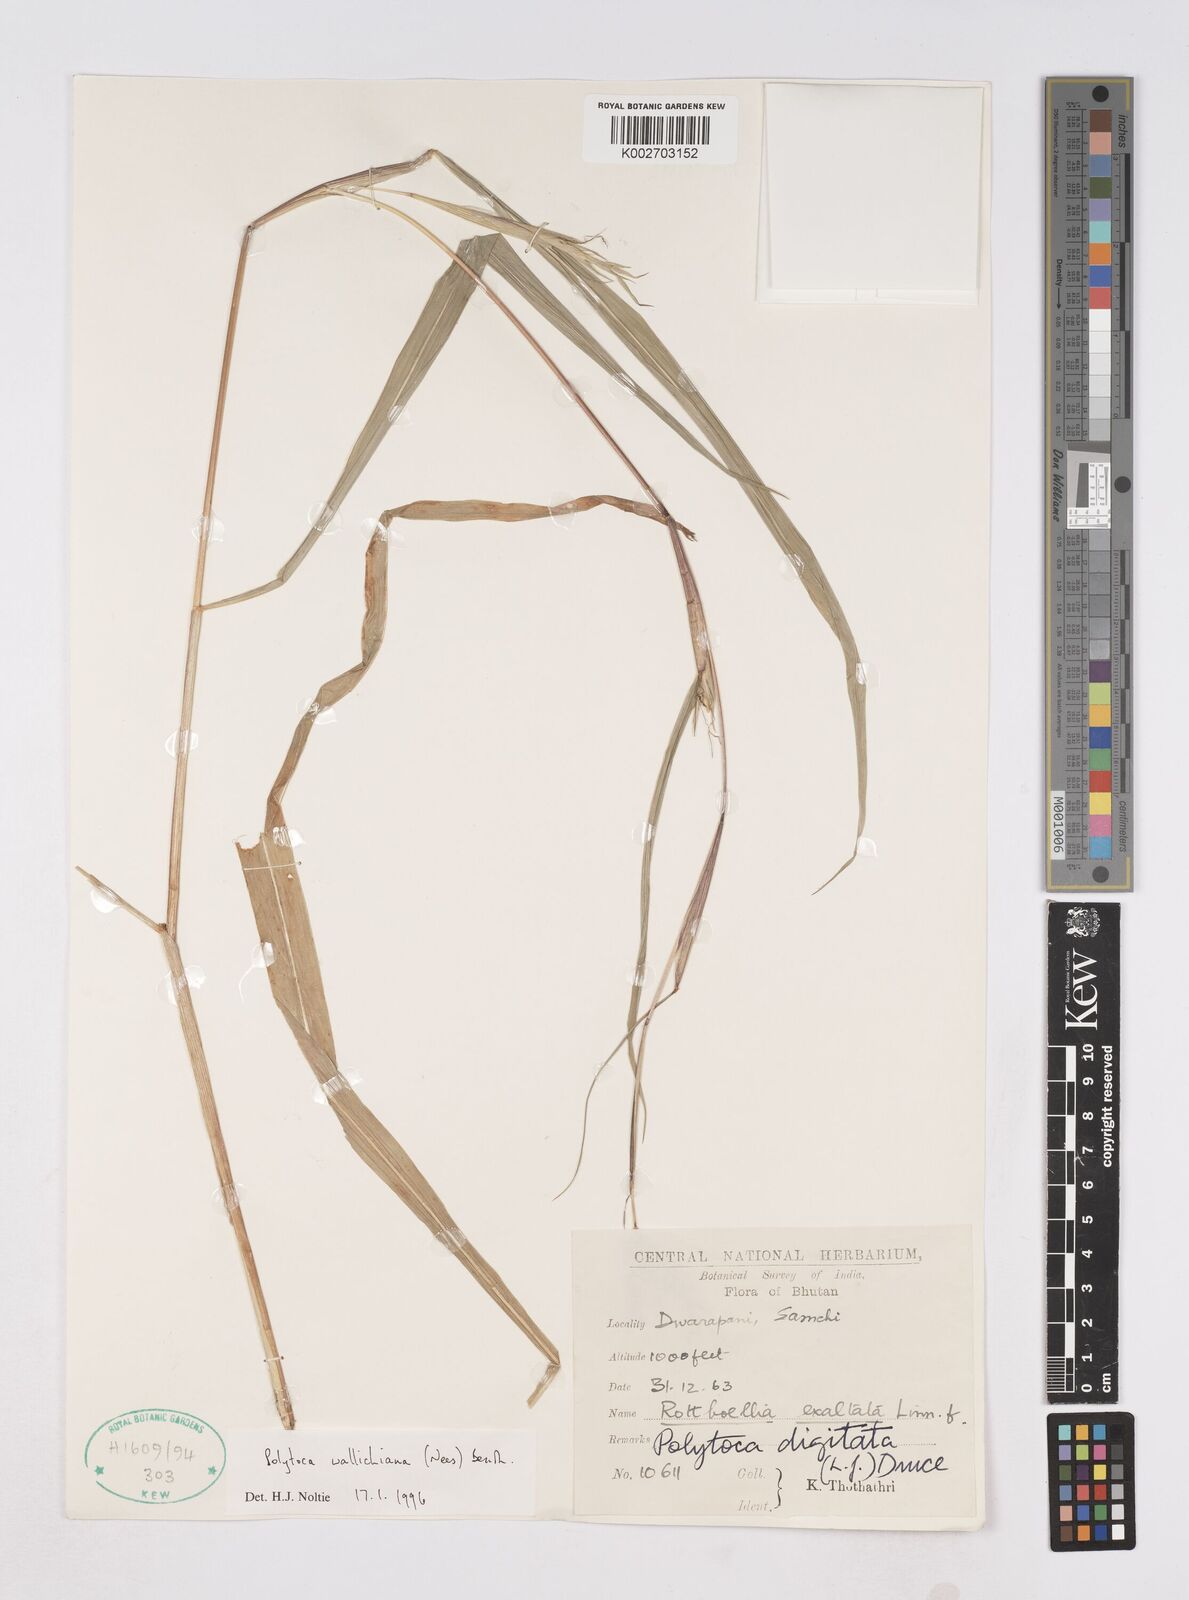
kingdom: Plantae
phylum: Tracheophyta
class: Liliopsida
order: Poales
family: Poaceae
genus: Polytoca
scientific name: Polytoca wallichiana
